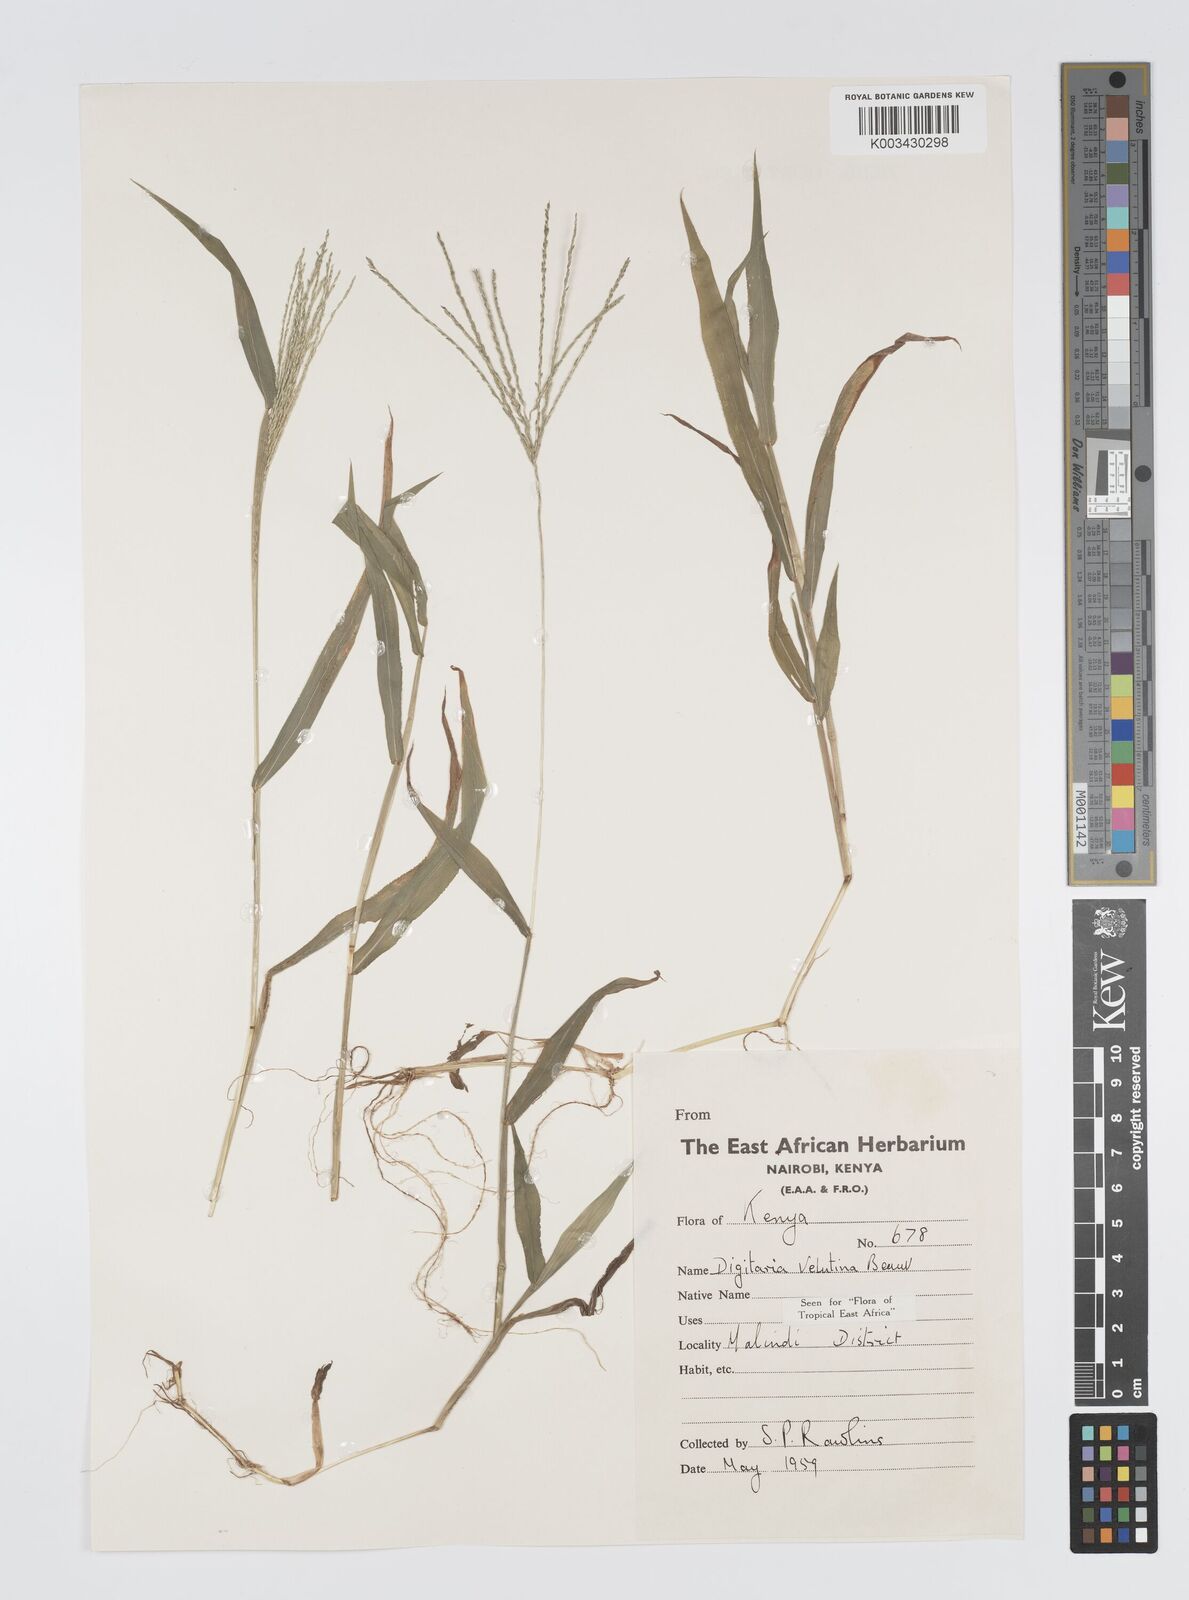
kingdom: Plantae
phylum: Tracheophyta
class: Liliopsida
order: Poales
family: Poaceae
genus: Digitaria
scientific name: Digitaria velutina
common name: Long-plume finger grass
